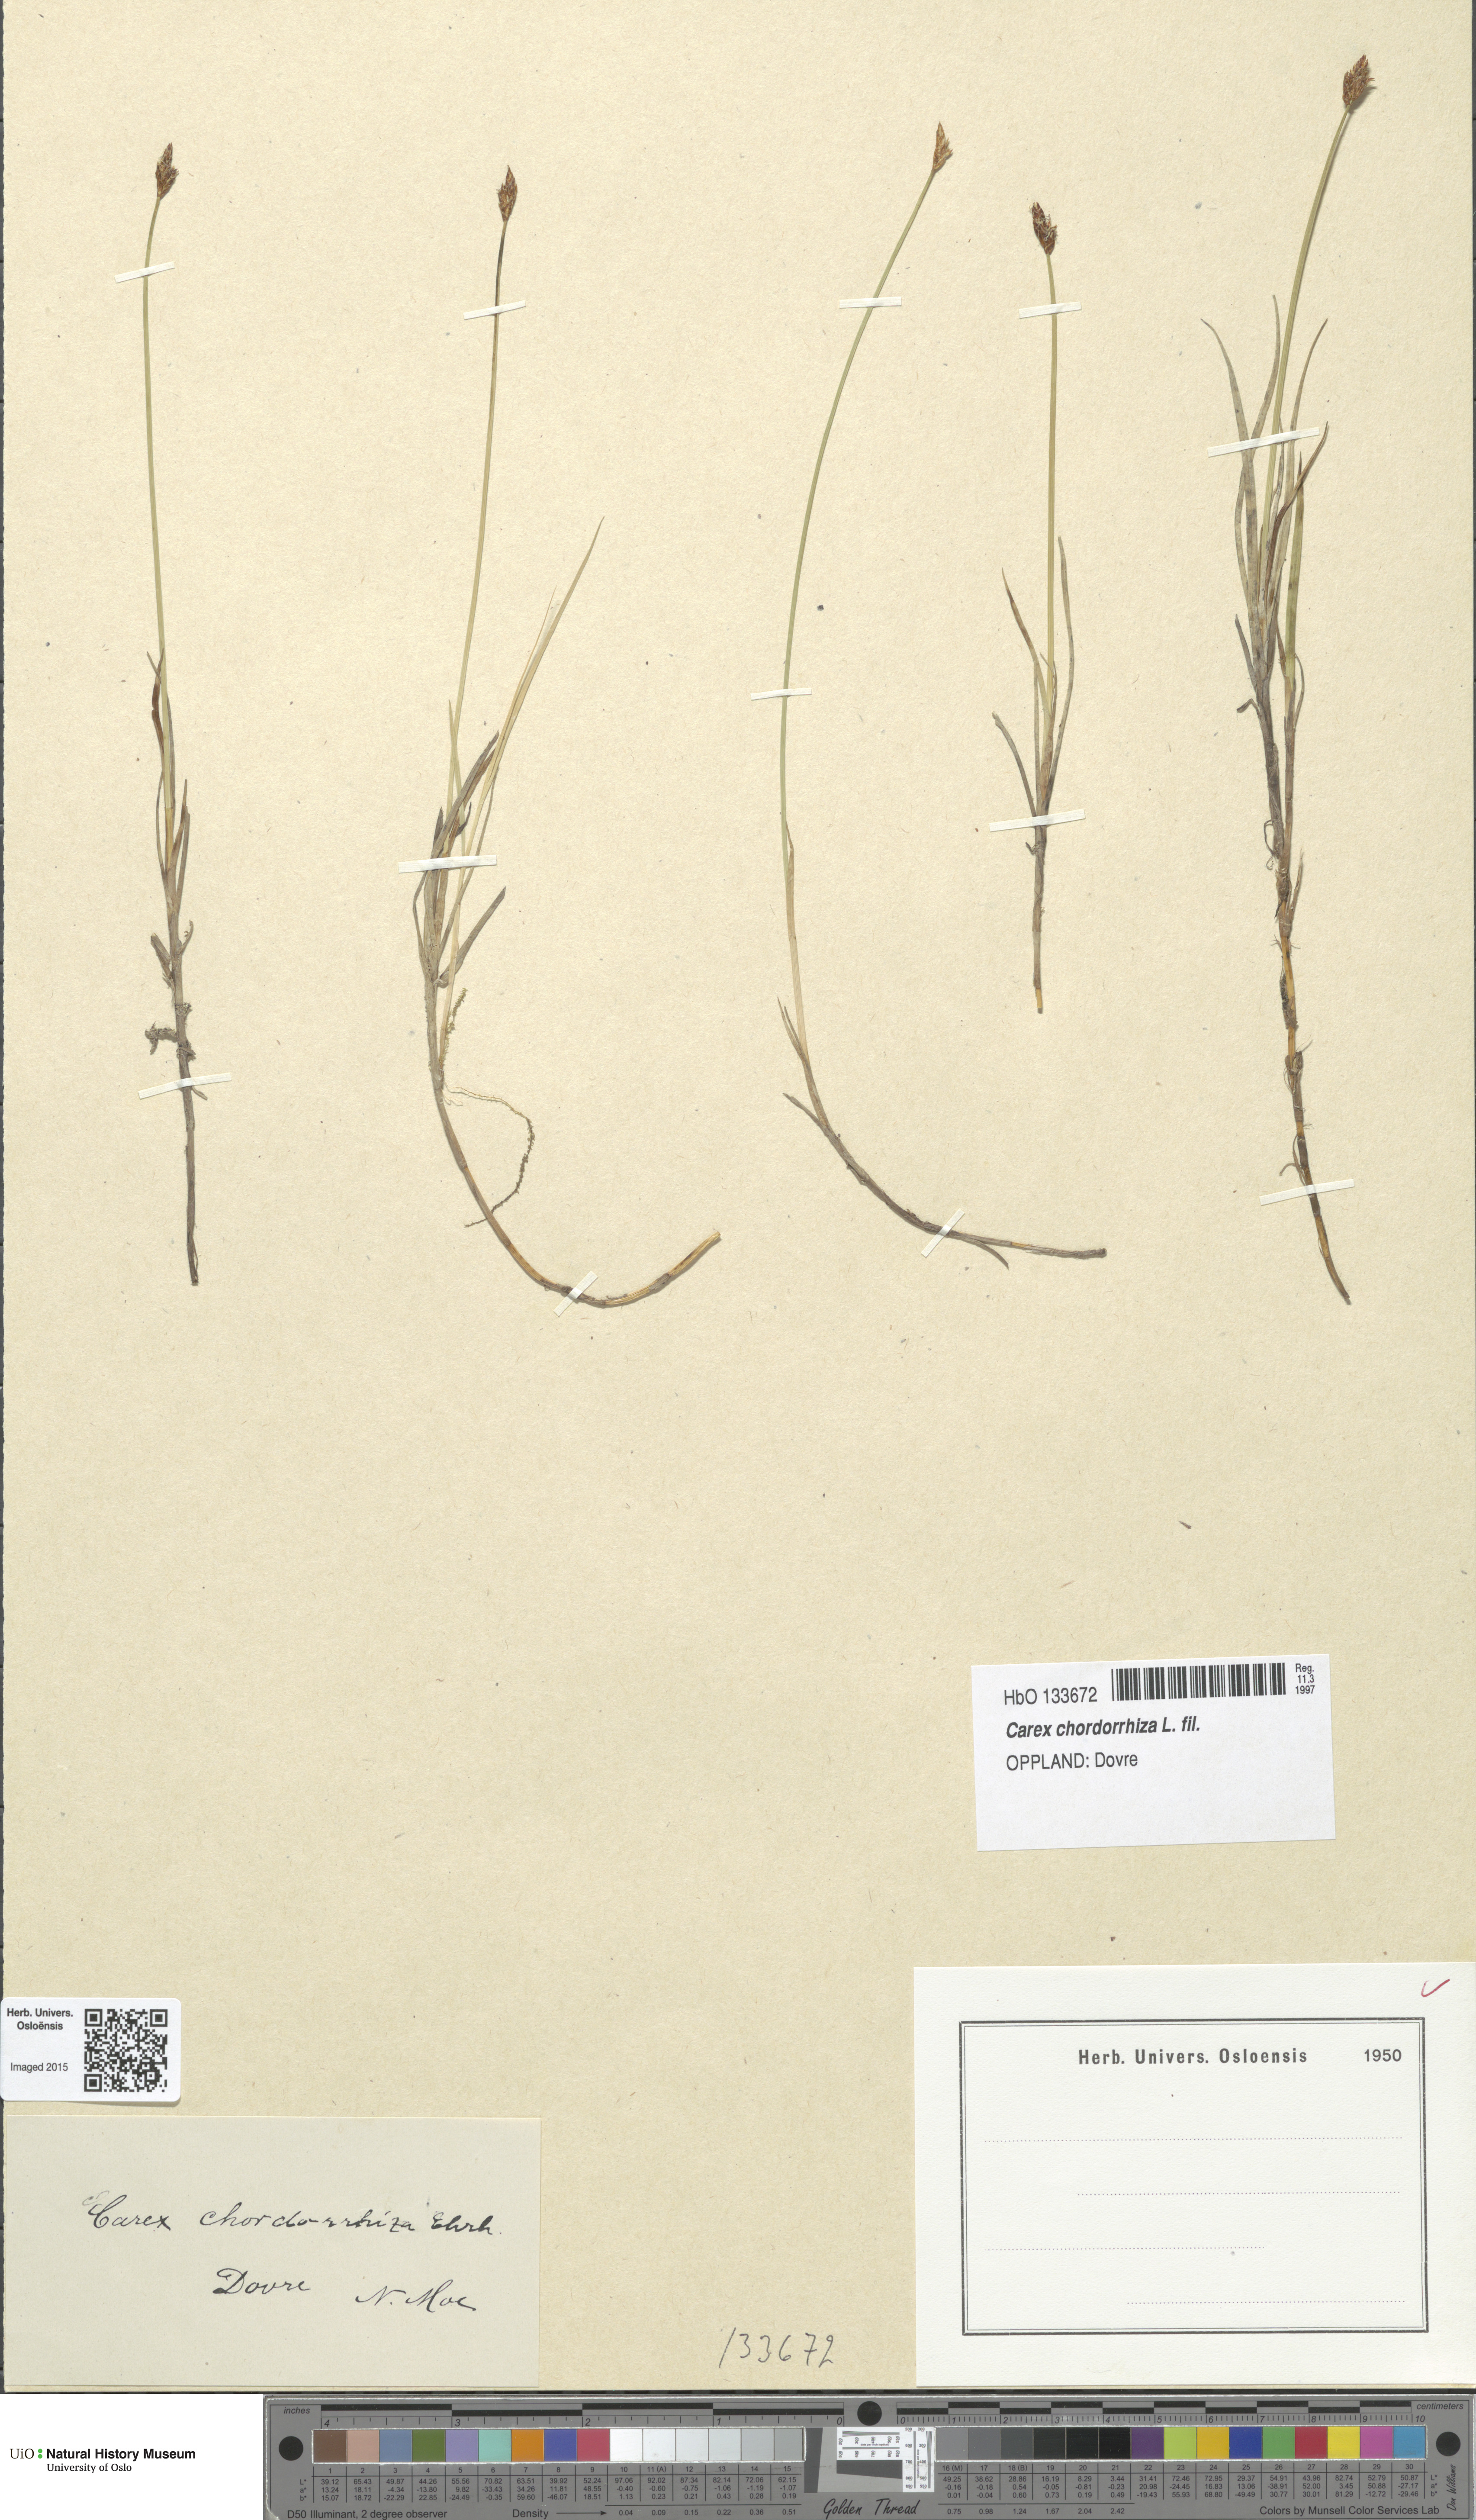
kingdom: Plantae
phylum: Tracheophyta
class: Liliopsida
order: Poales
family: Cyperaceae
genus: Carex
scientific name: Carex chordorrhiza
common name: String sedge
